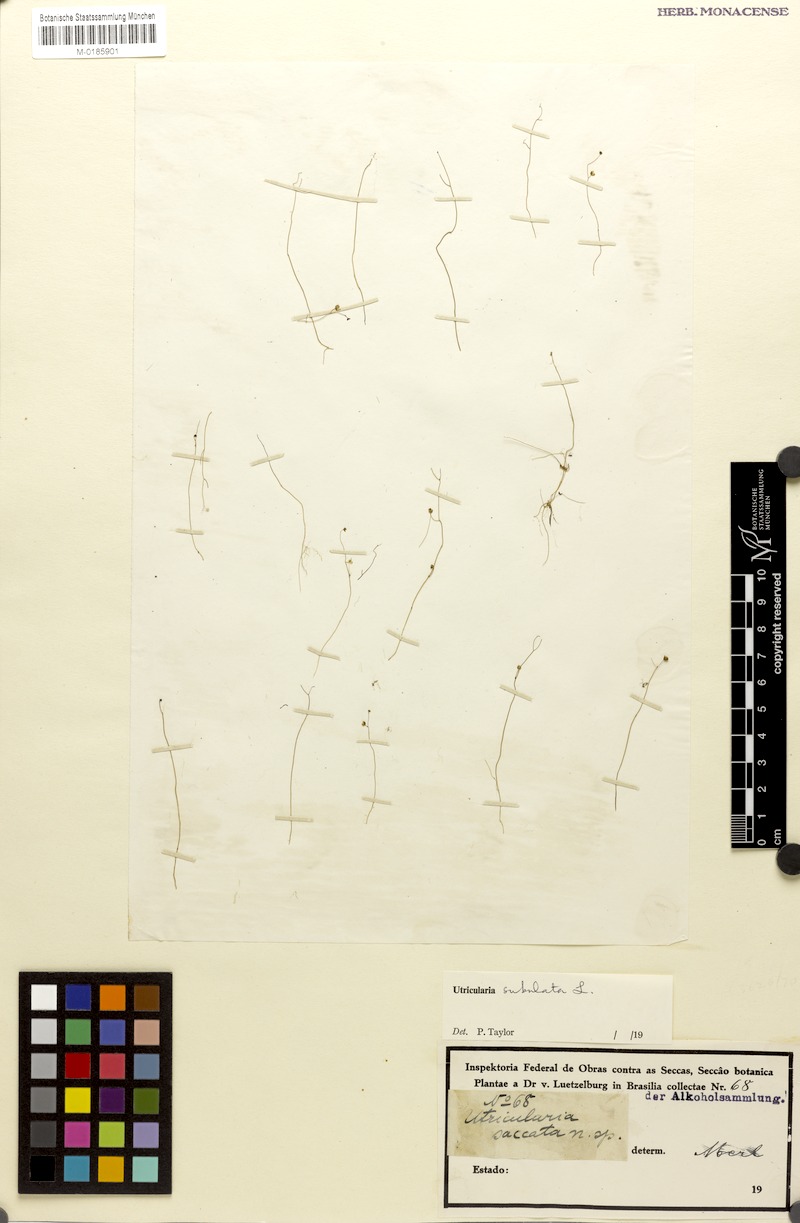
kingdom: Plantae
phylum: Tracheophyta
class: Magnoliopsida
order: Lamiales
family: Lentibulariaceae
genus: Utricularia
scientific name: Utricularia subulata
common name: Tiny bladderwort
